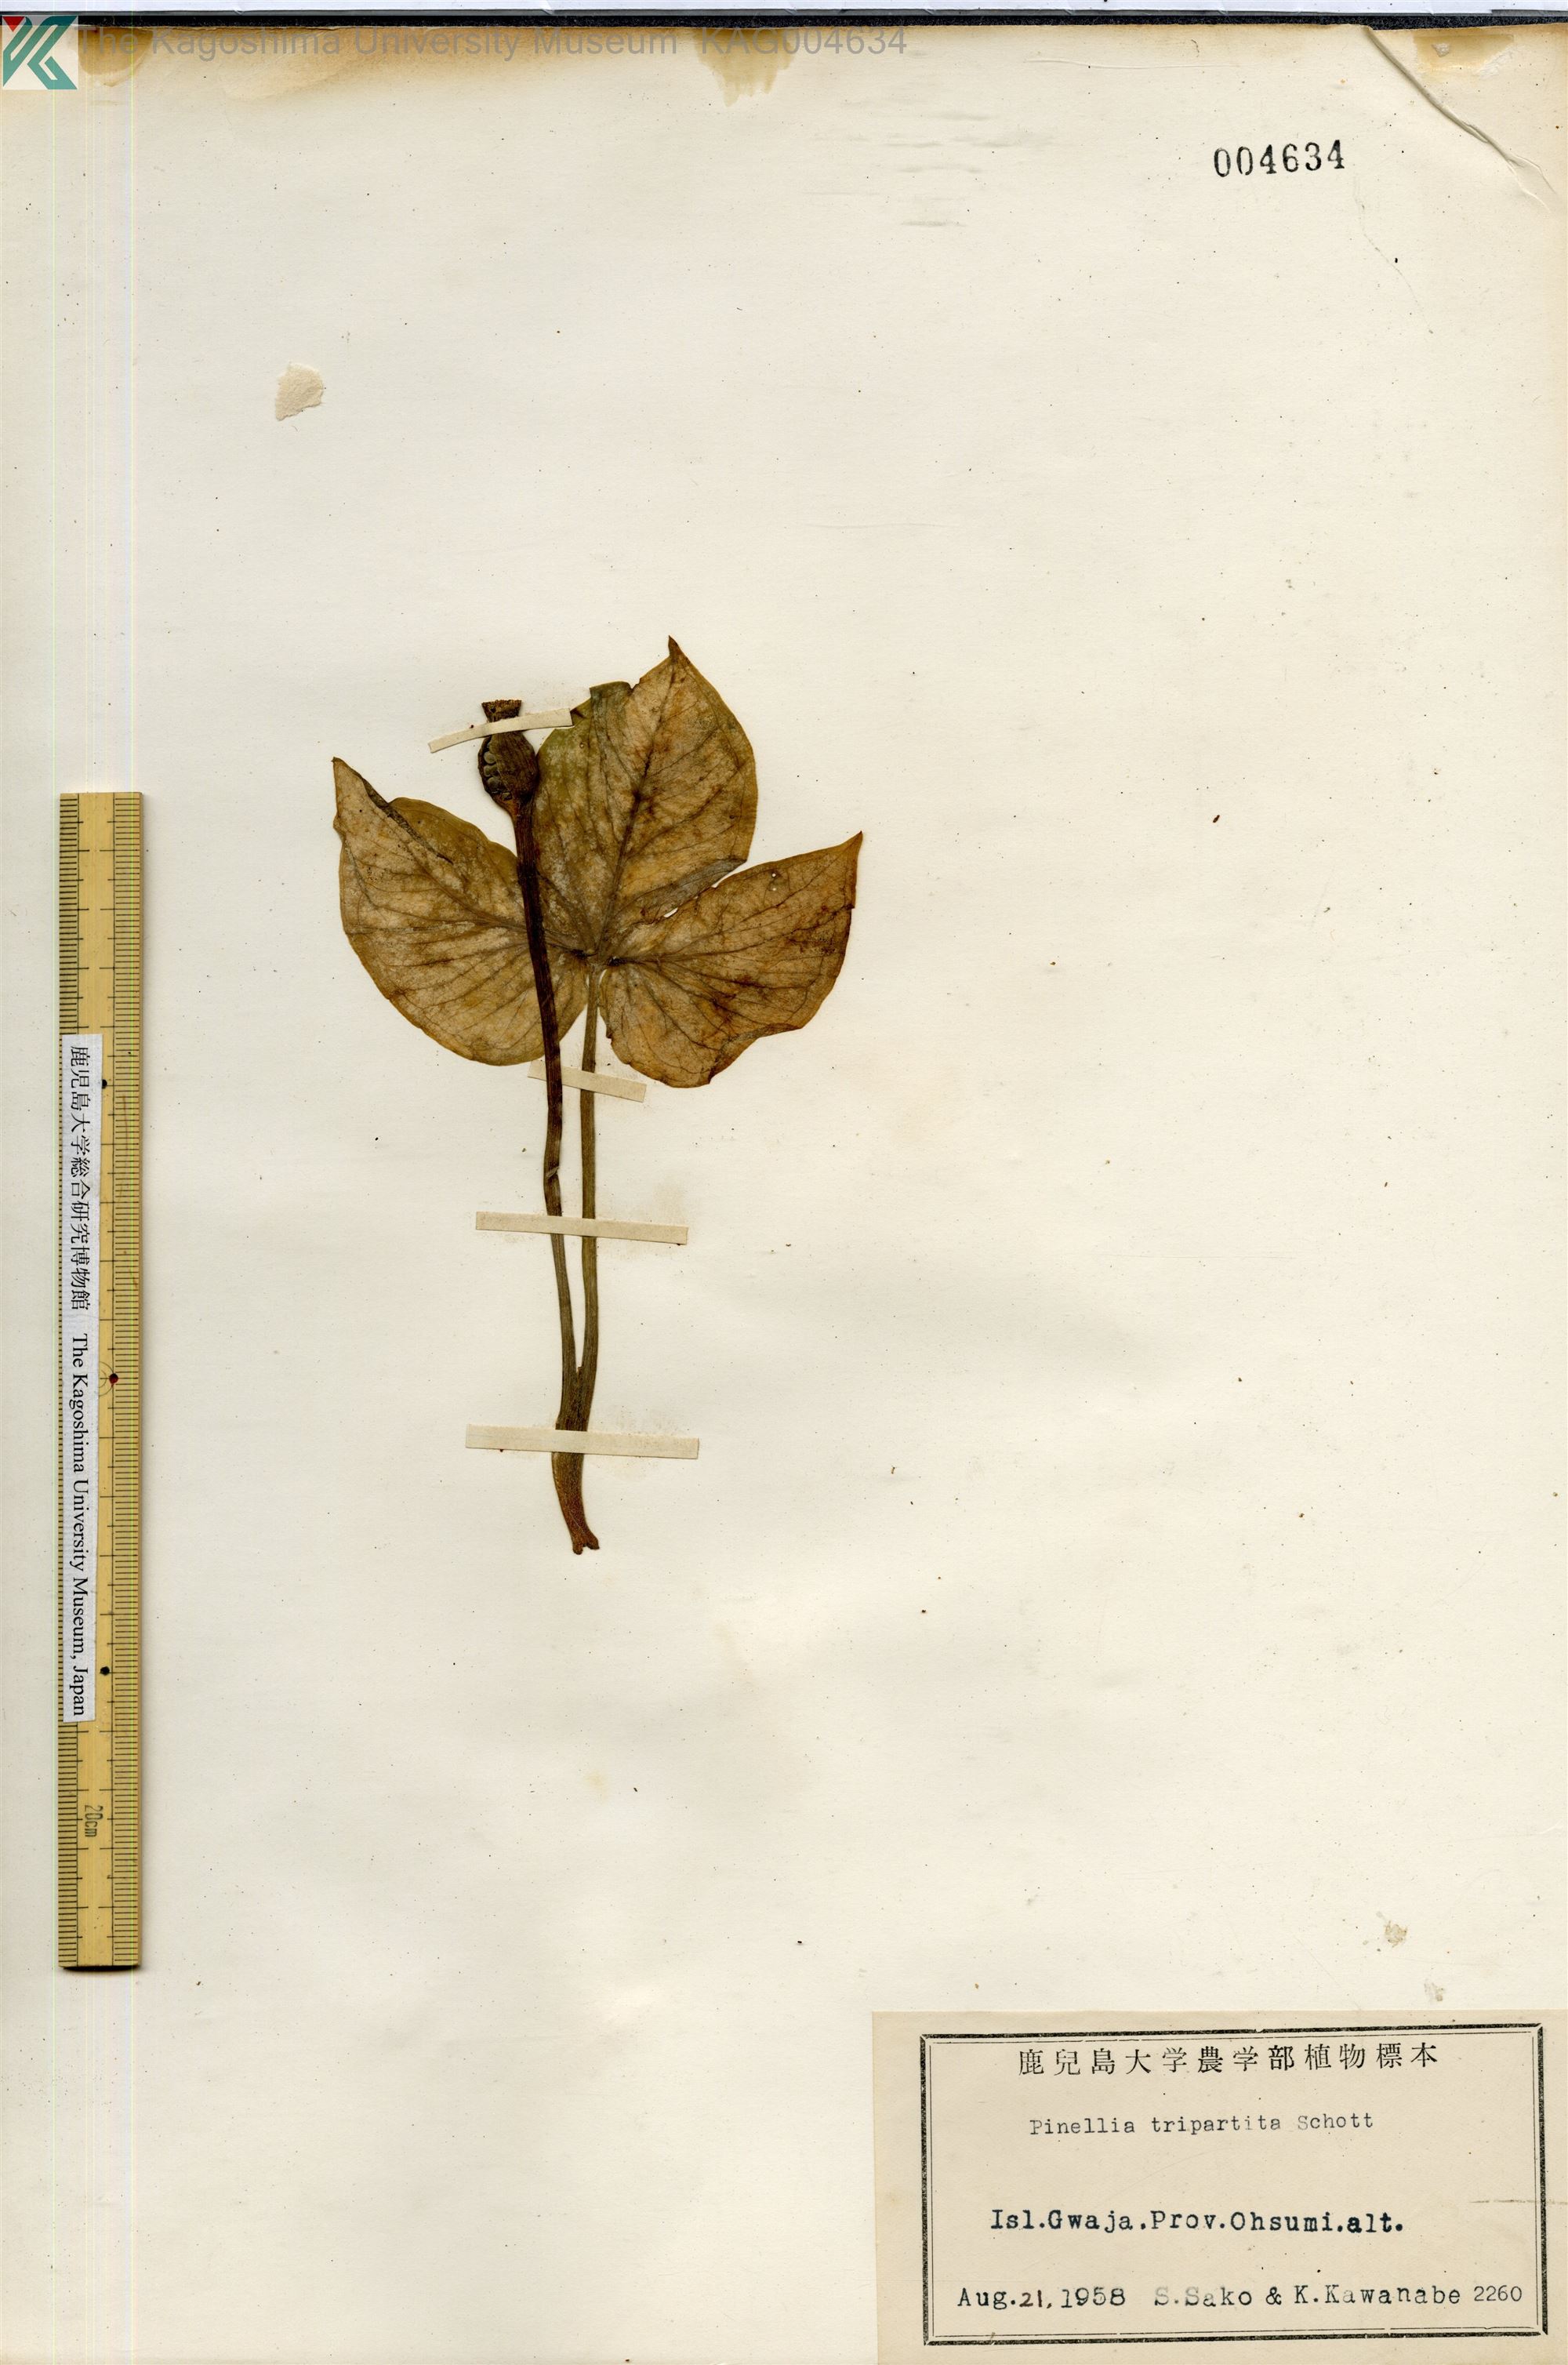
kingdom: Plantae
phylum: Tracheophyta
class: Liliopsida
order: Alismatales
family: Araceae
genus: Pinellia
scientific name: Pinellia tripartita
